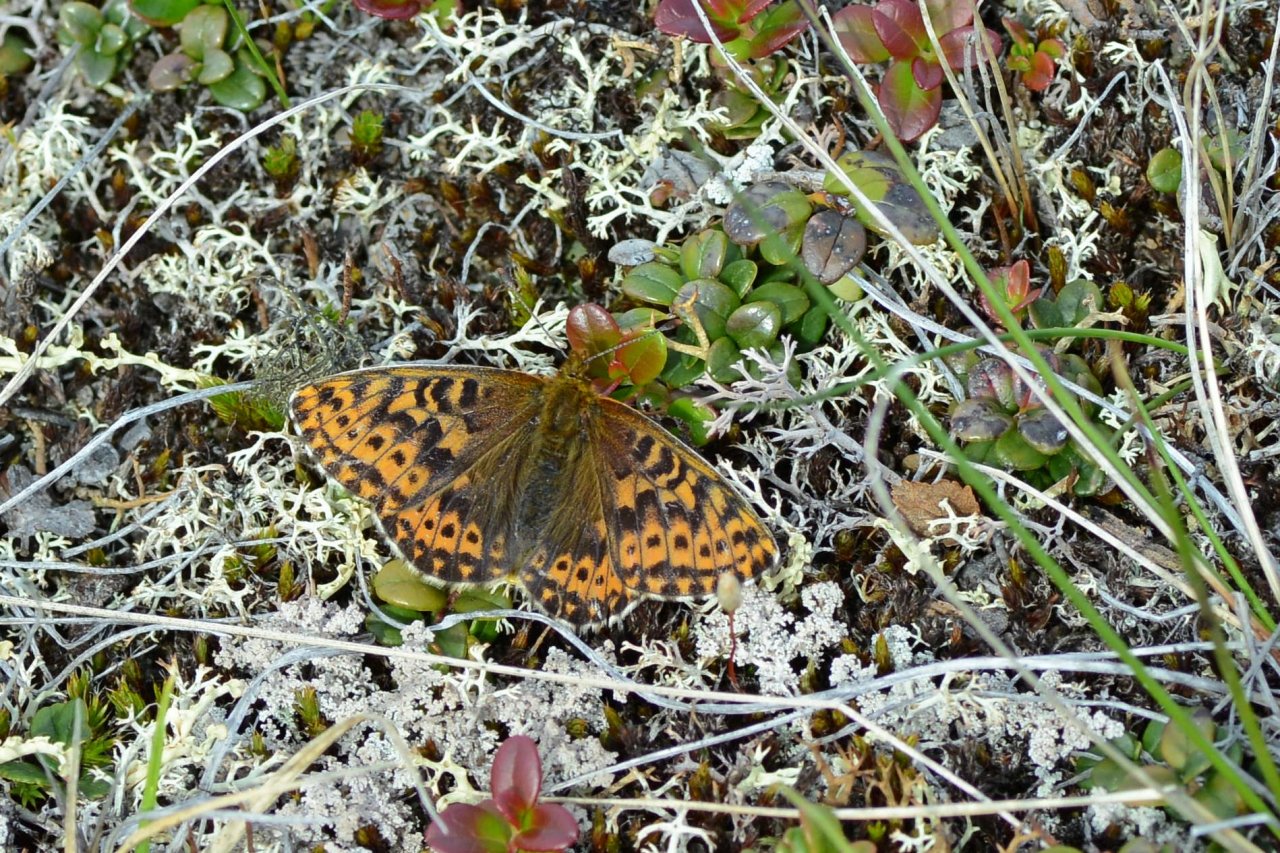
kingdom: Animalia
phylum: Arthropoda
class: Insecta
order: Lepidoptera
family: Nymphalidae
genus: Clossiana
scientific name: Clossiana polaris
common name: Polaris Fritillary
